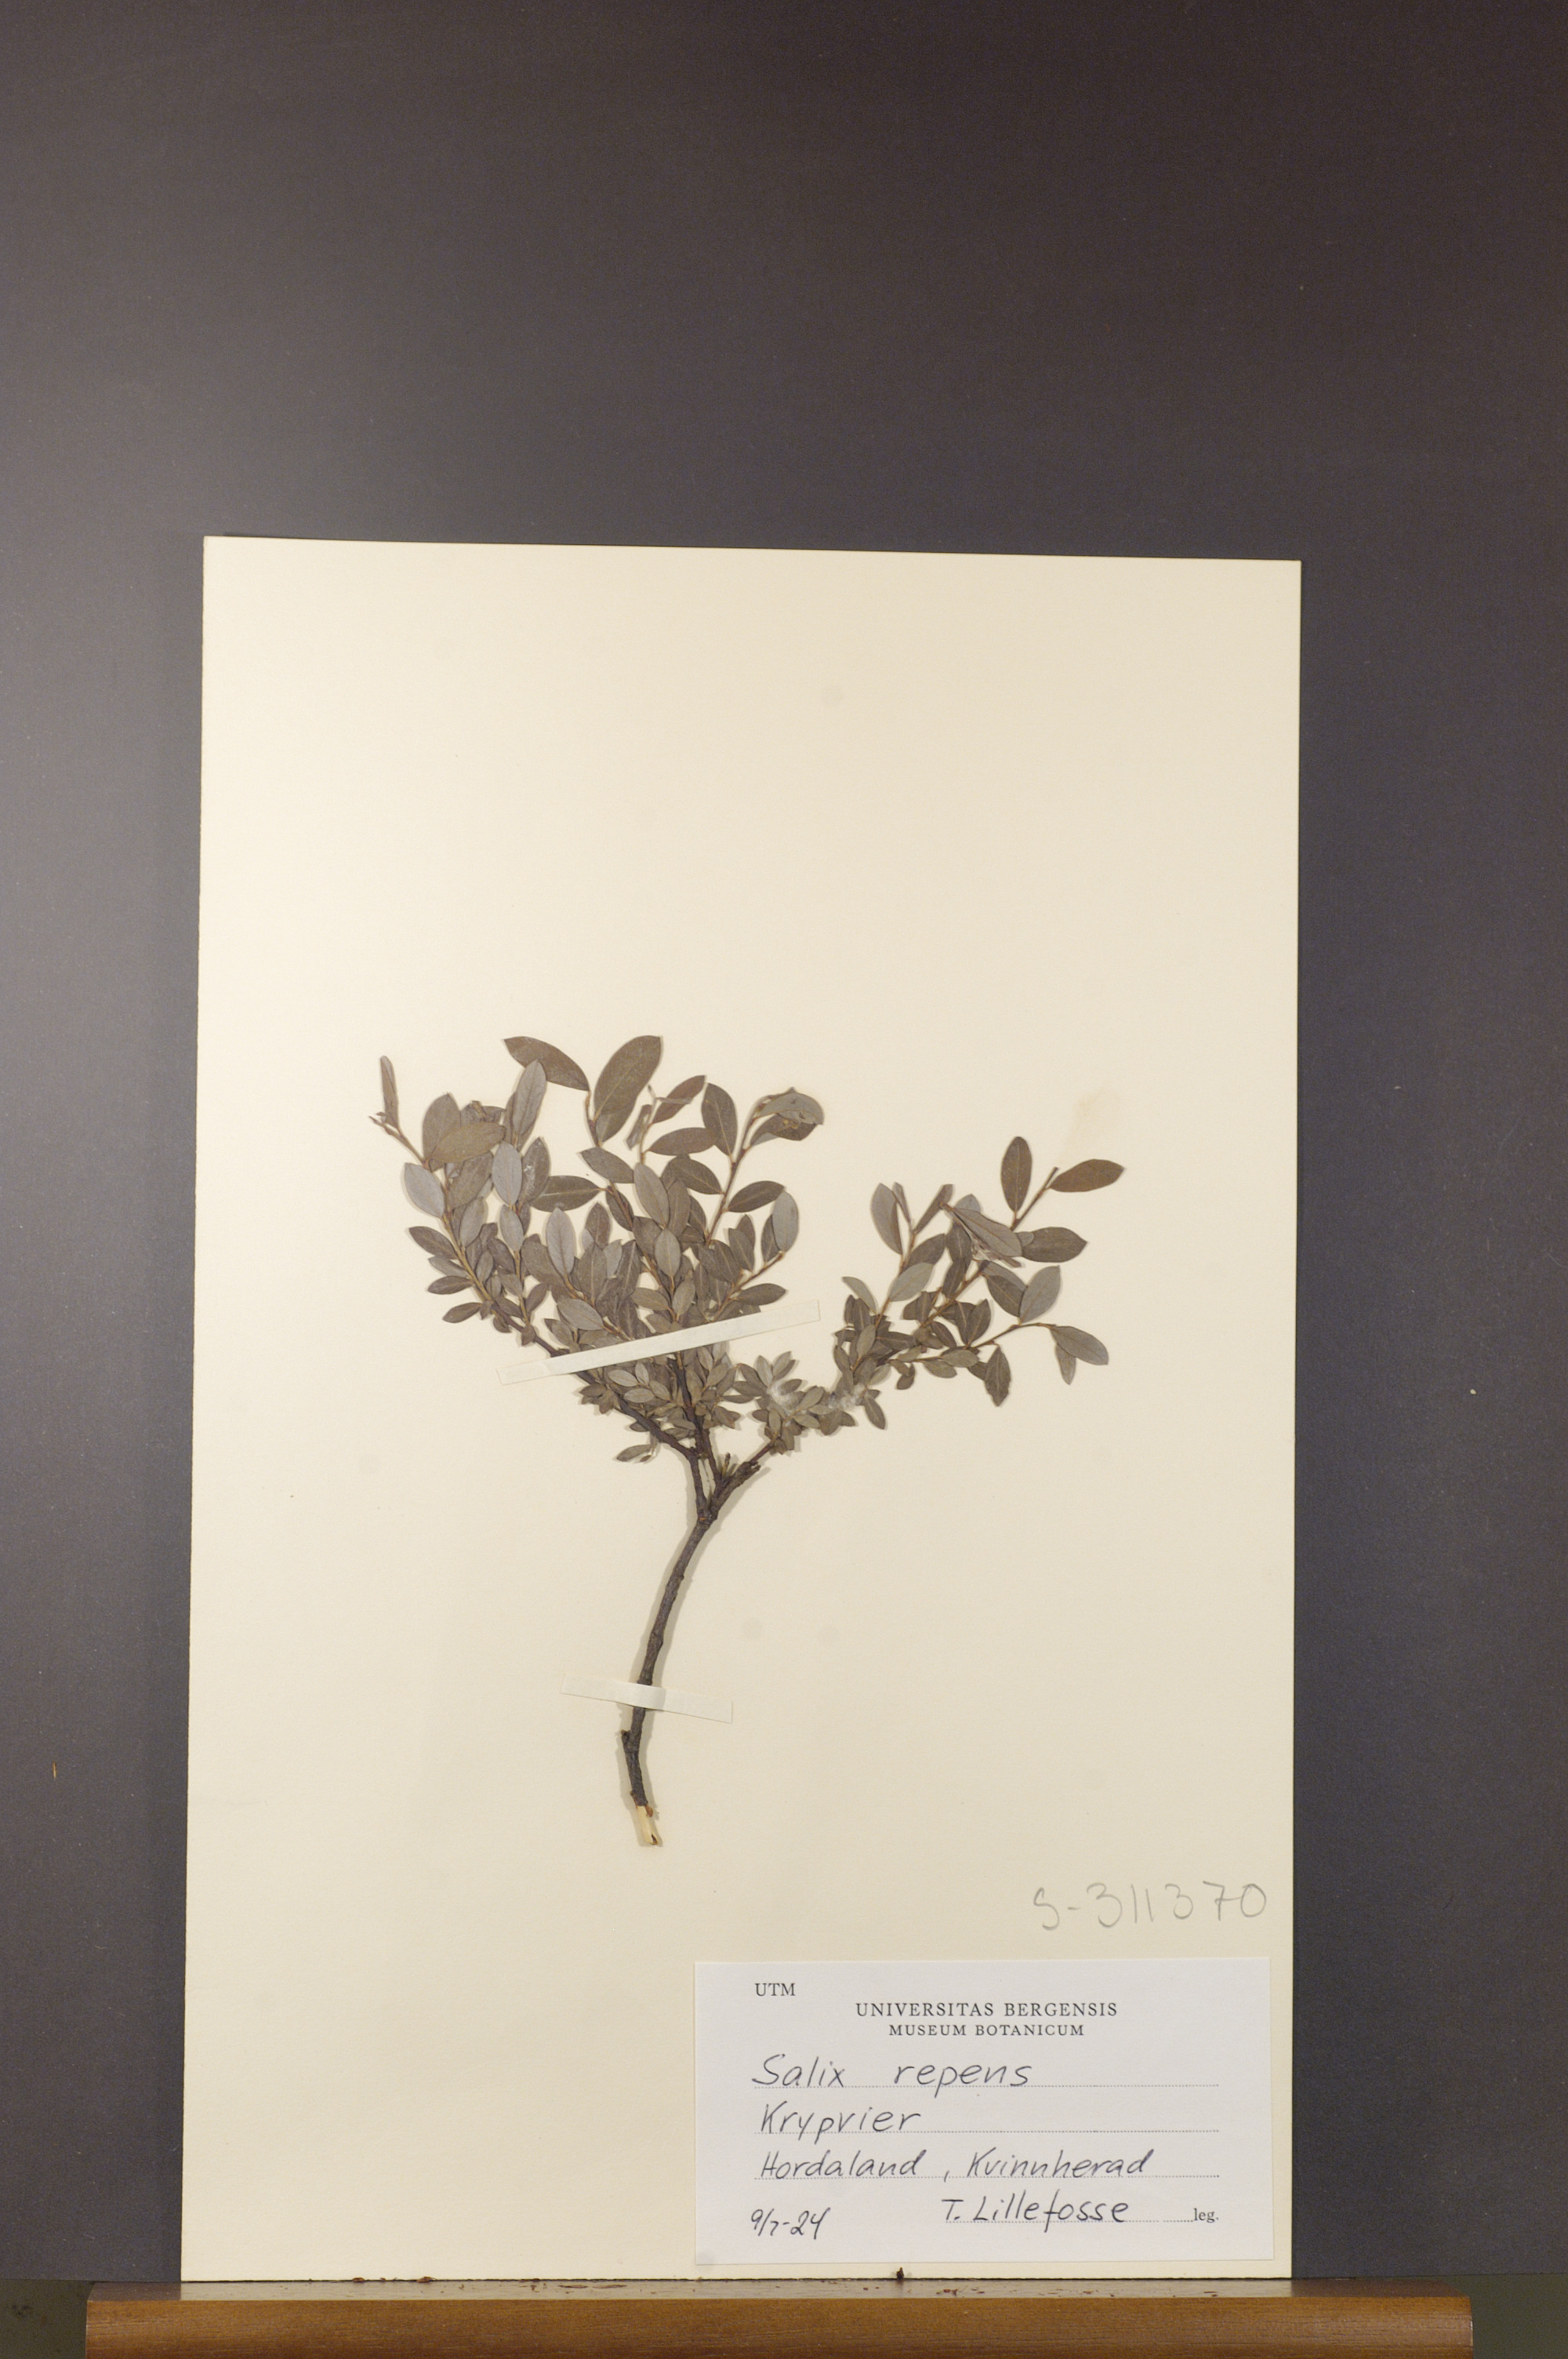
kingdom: Plantae
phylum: Tracheophyta
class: Magnoliopsida
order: Malpighiales
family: Salicaceae
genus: Salix
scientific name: Salix repens
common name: Creeping willow
